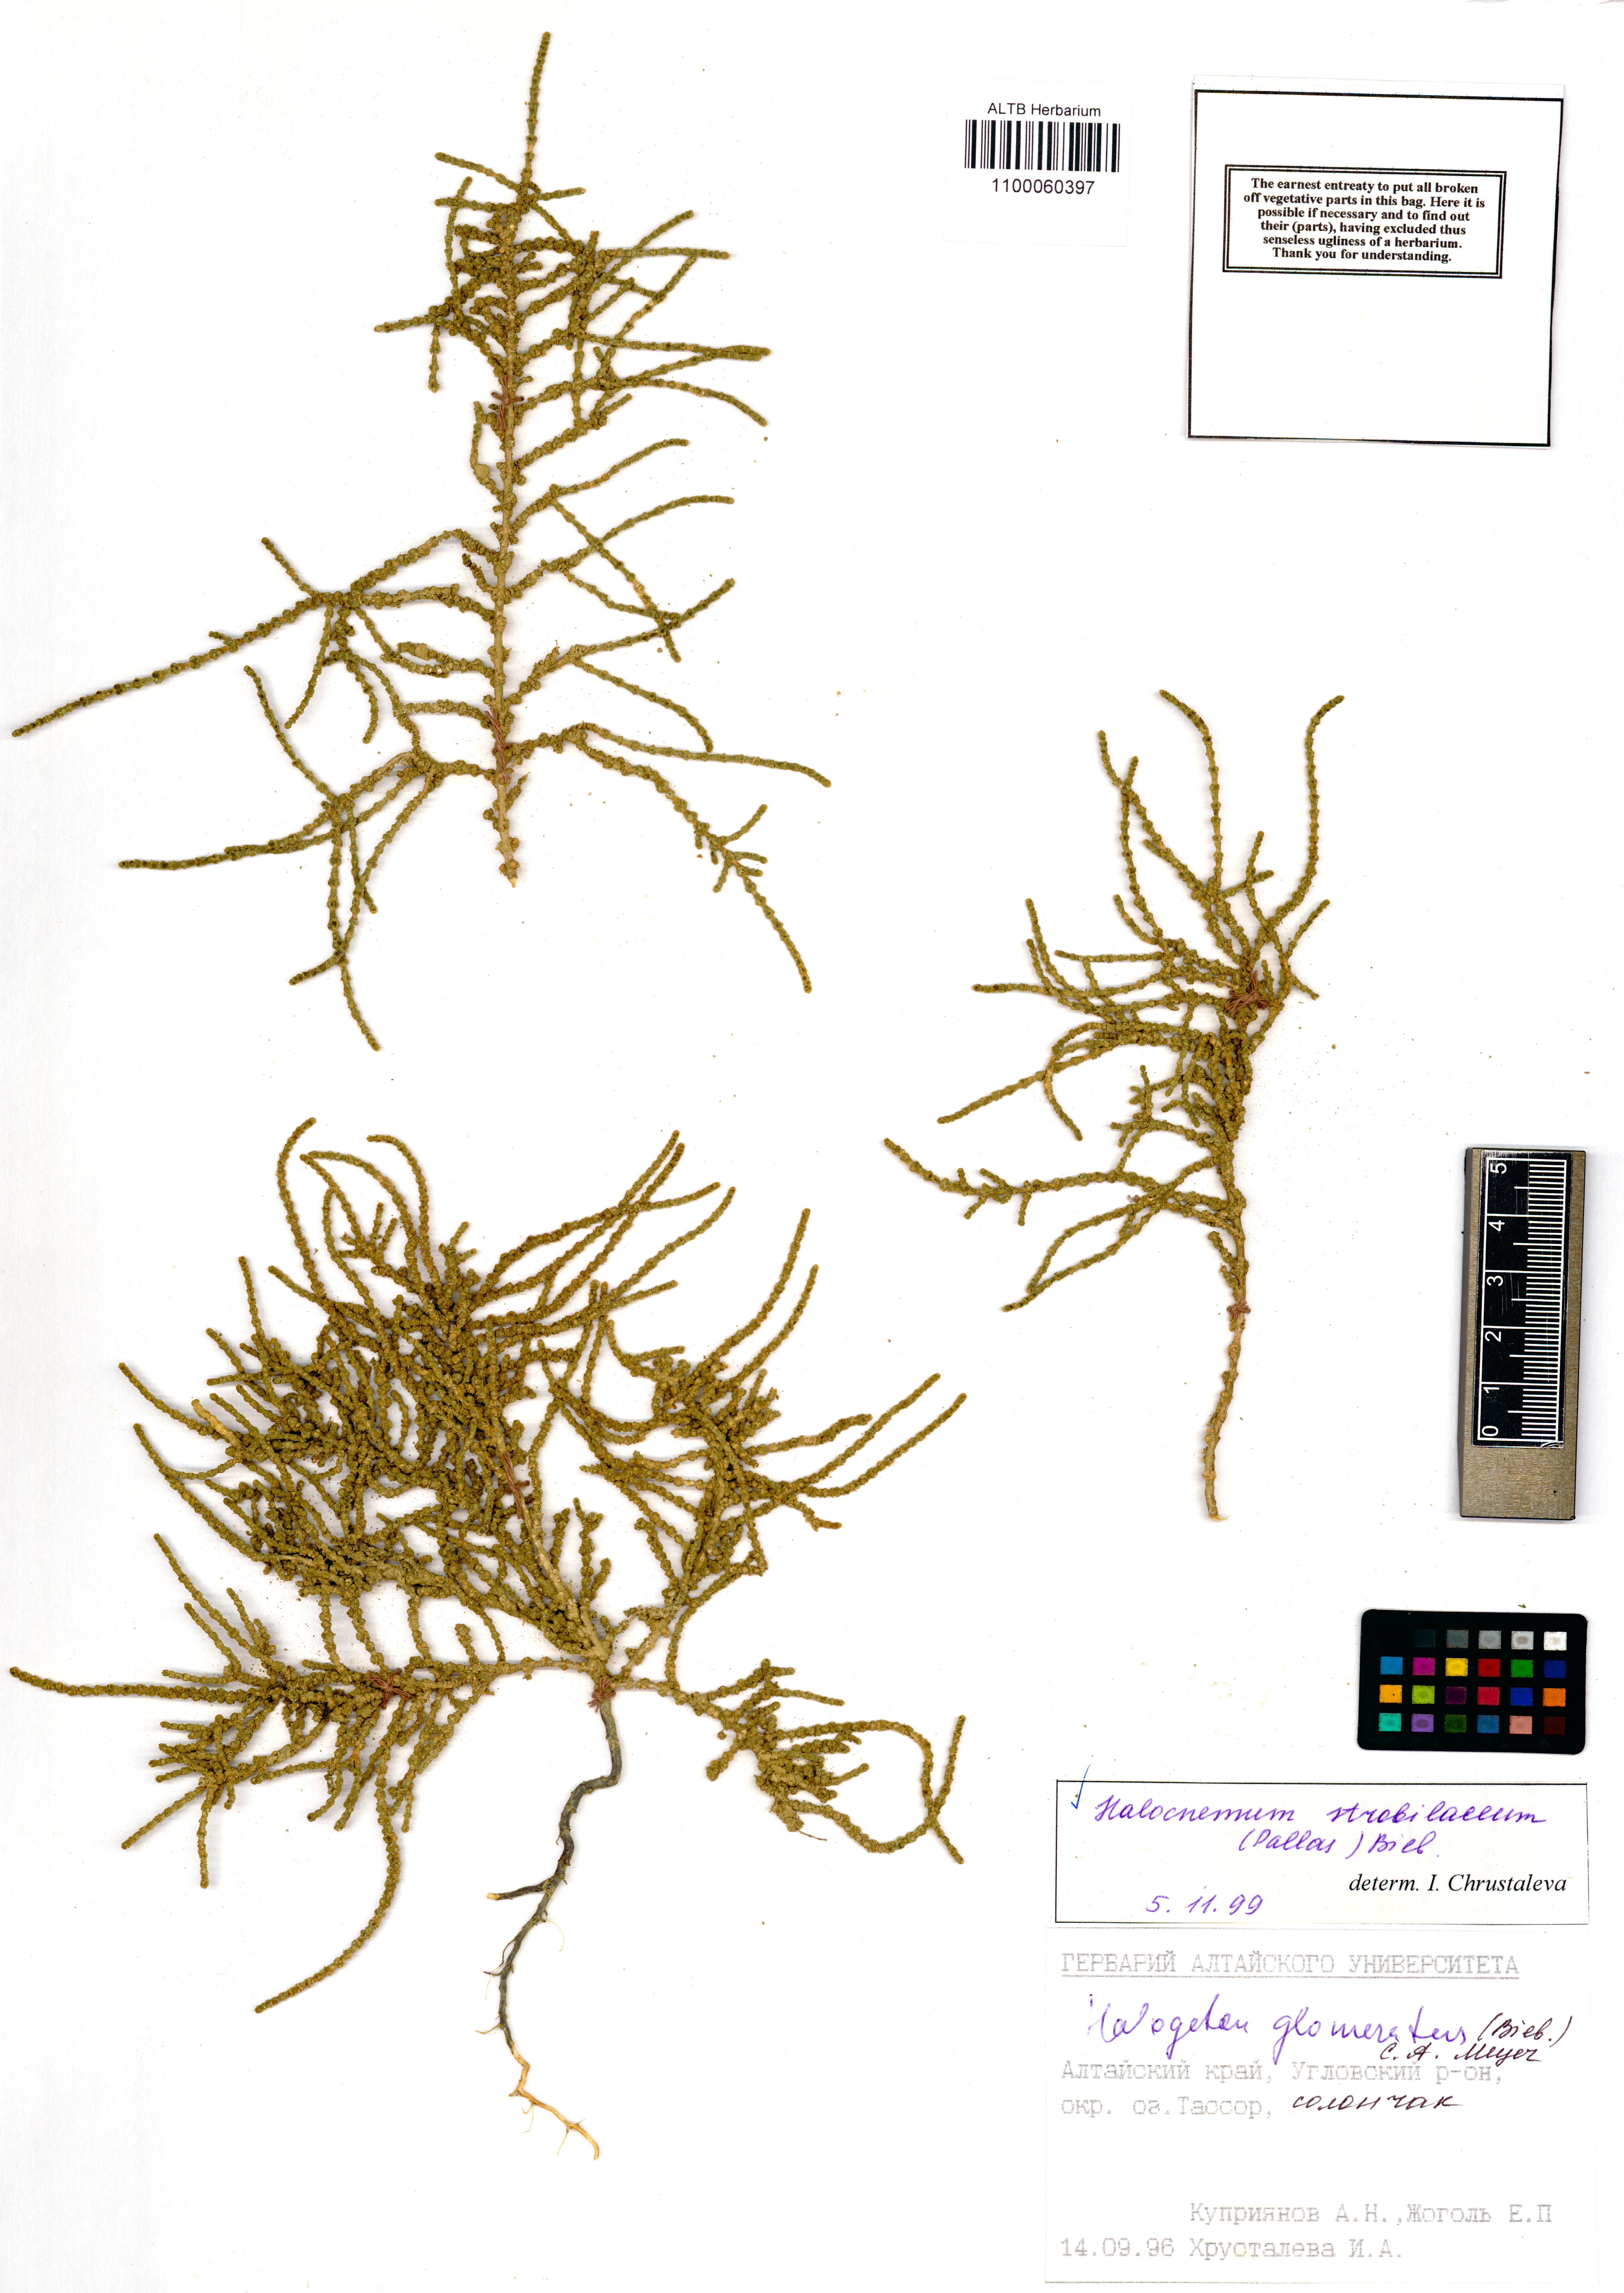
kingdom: Plantae
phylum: Tracheophyta
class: Magnoliopsida
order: Caryophyllales
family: Amaranthaceae
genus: Halocnemum
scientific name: Halocnemum strobilaceum
